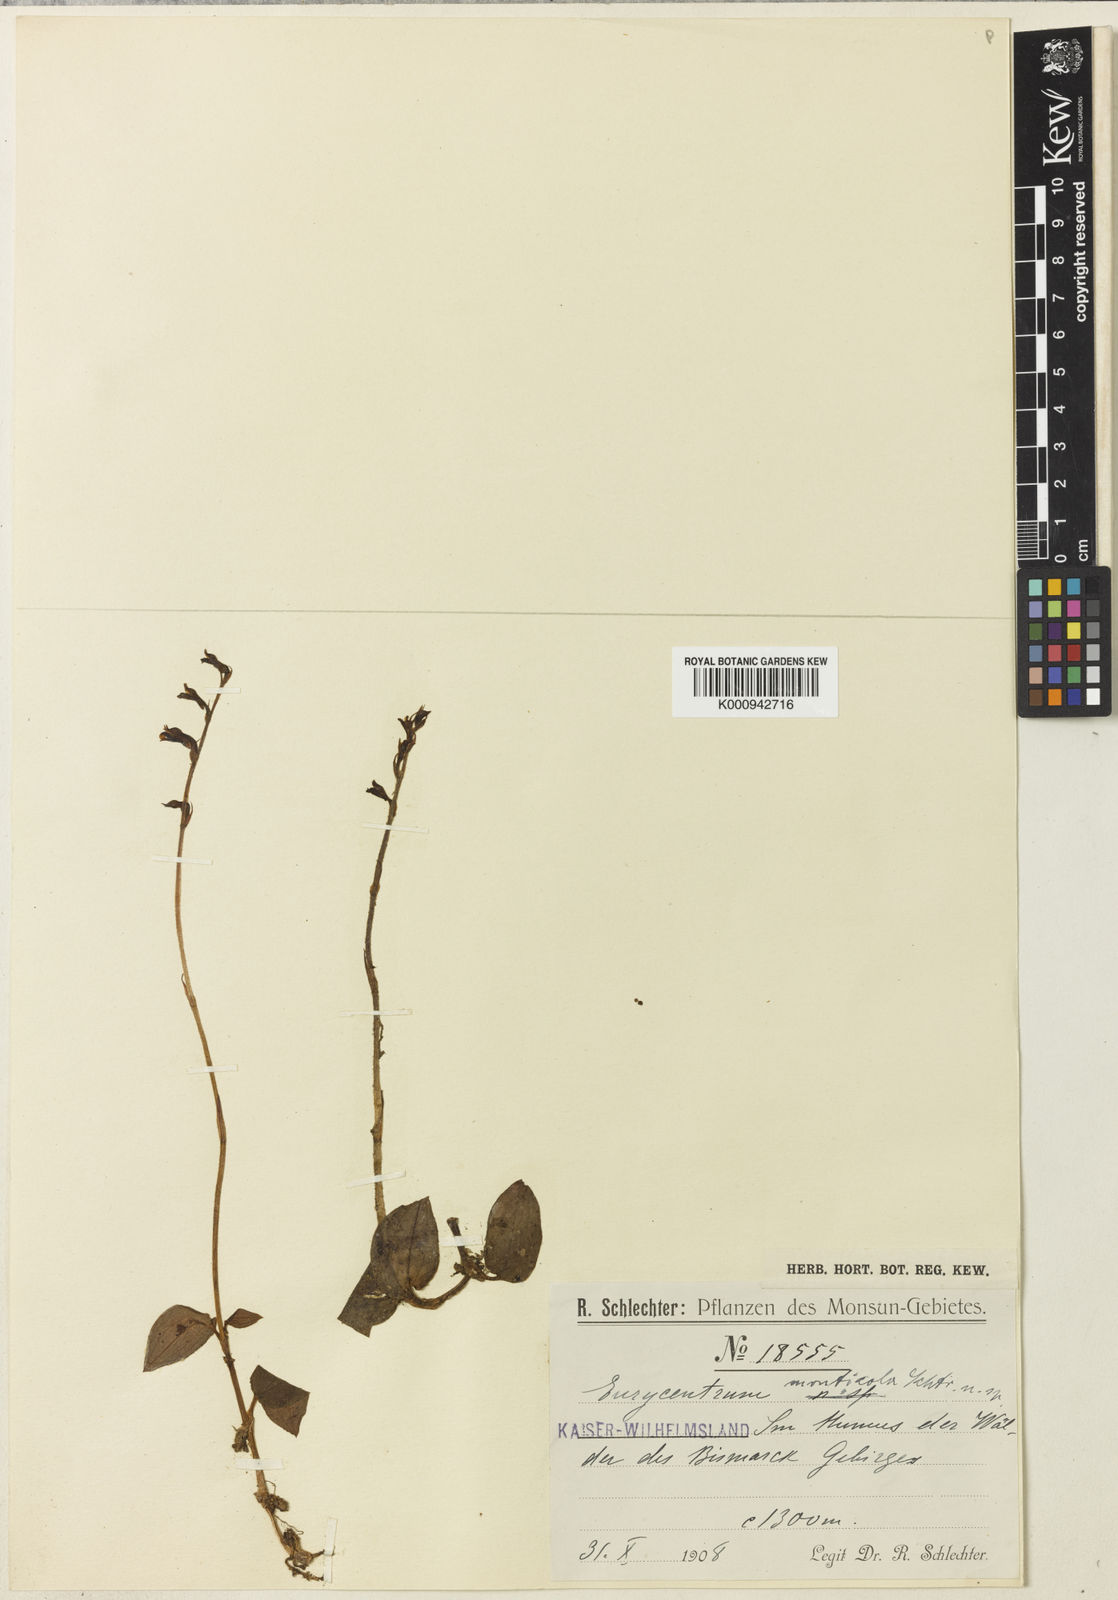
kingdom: Plantae
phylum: Tracheophyta
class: Liliopsida
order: Asparagales
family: Orchidaceae
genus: Eurycentrum
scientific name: Eurycentrum monticola
